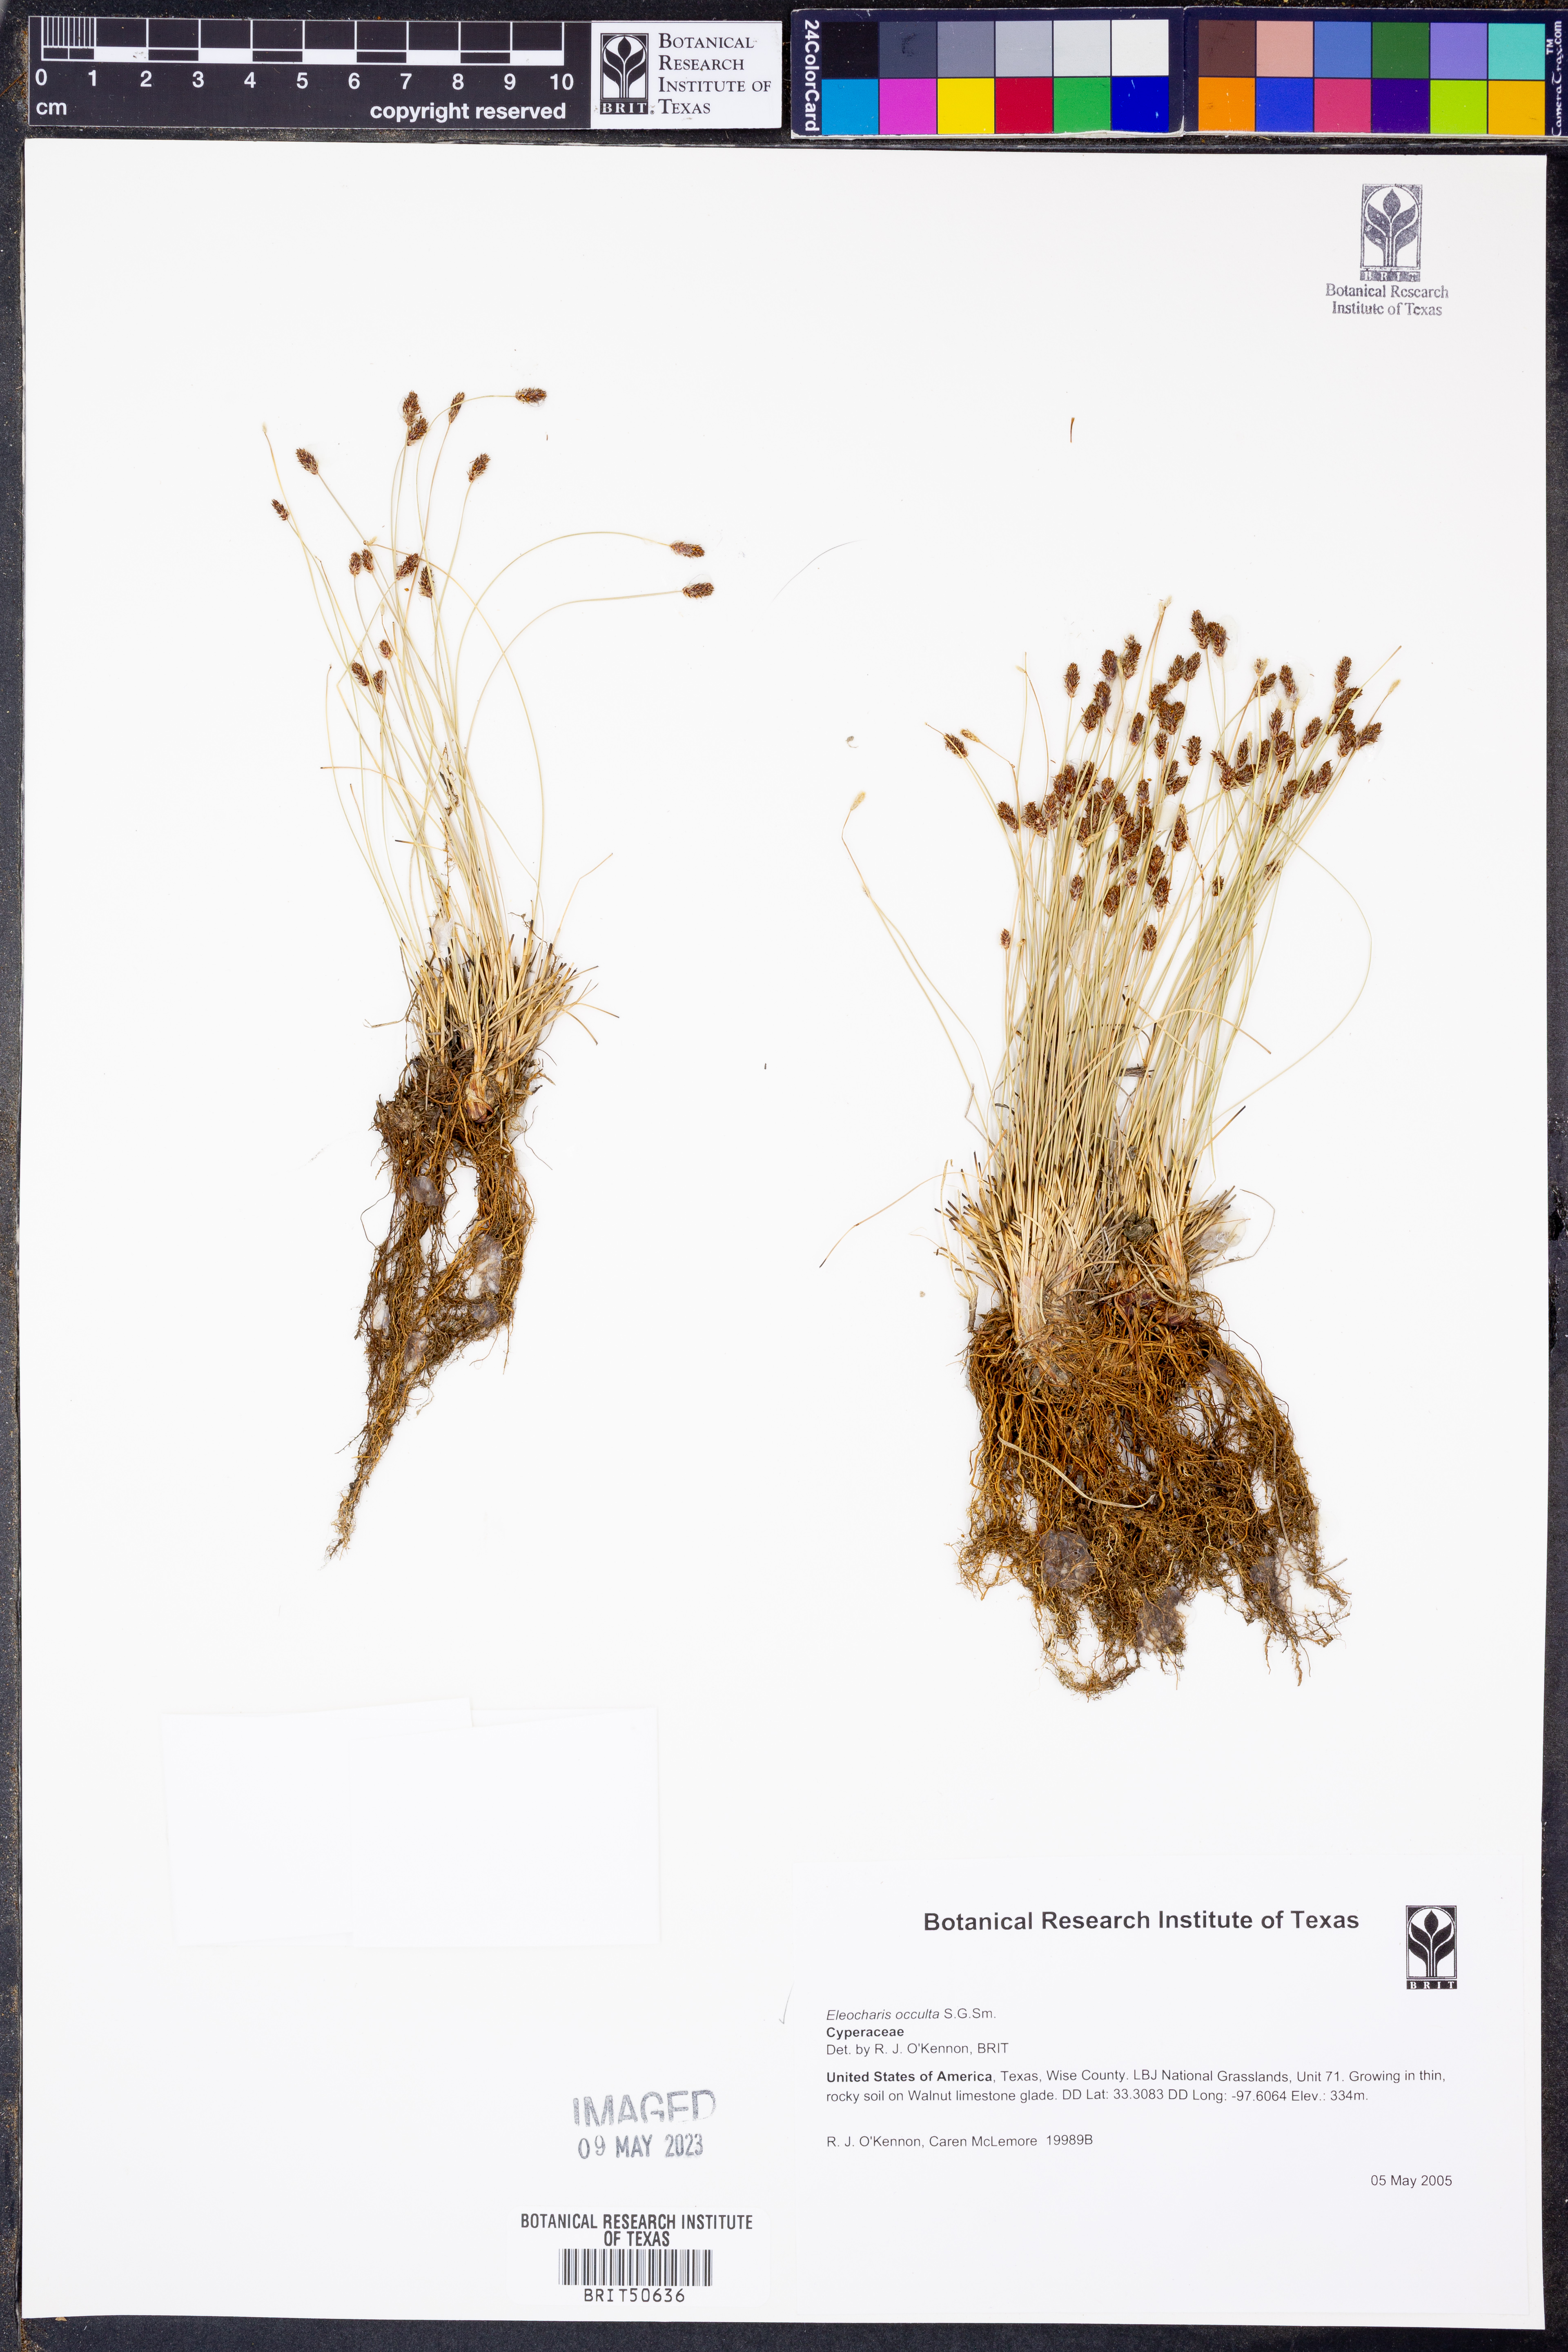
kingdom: Plantae
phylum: Tracheophyta
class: Liliopsida
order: Poales
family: Cyperaceae
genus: Eleocharis
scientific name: Eleocharis occulta
